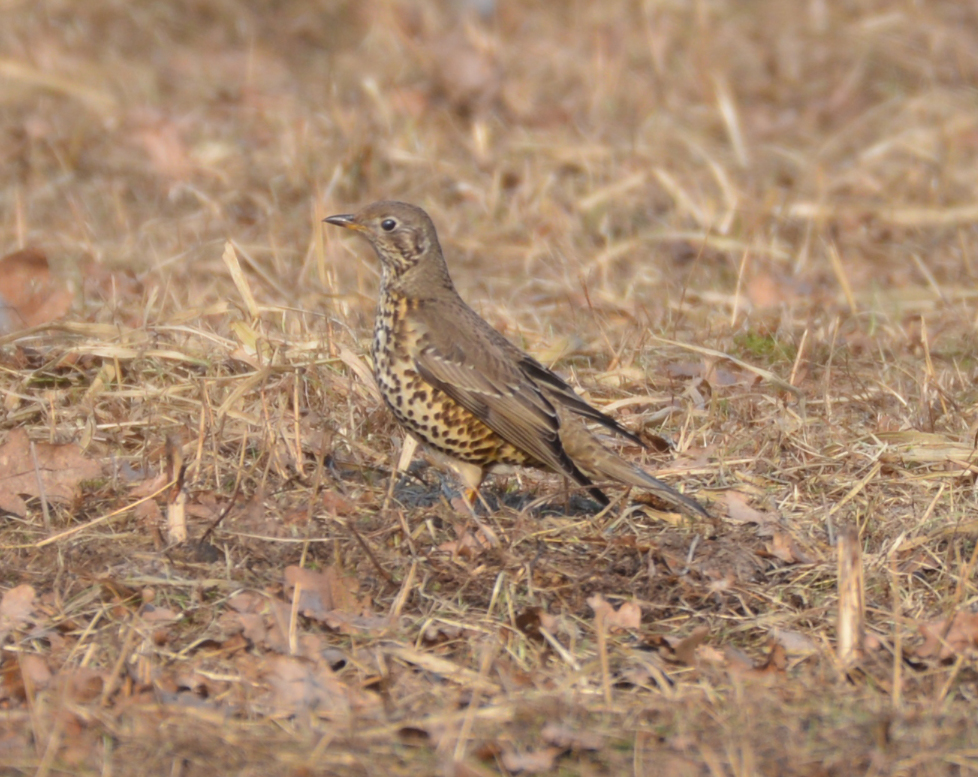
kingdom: Animalia
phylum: Chordata
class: Aves
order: Passeriformes
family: Turdidae
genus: Turdus
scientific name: Turdus philomelos
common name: Song thrush
